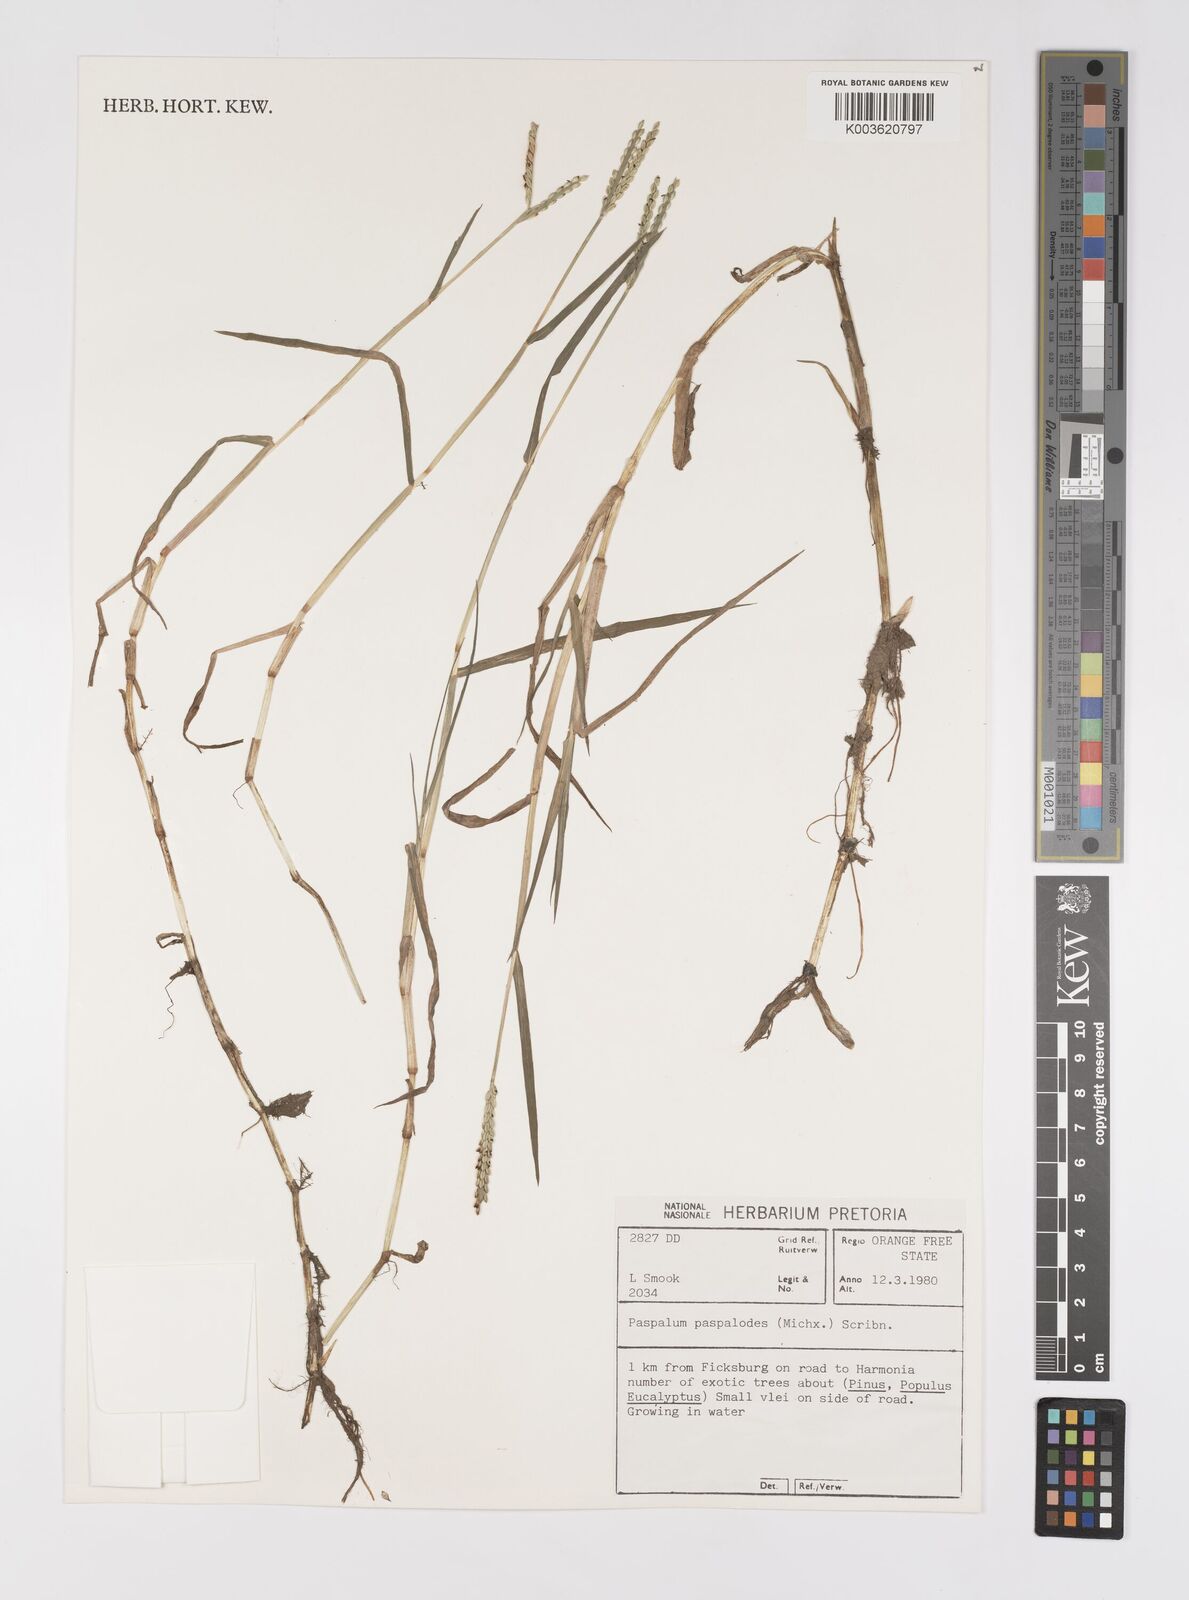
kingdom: Plantae
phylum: Tracheophyta
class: Liliopsida
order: Poales
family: Poaceae
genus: Paspalum
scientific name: Paspalum distichum
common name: Knotgrass
